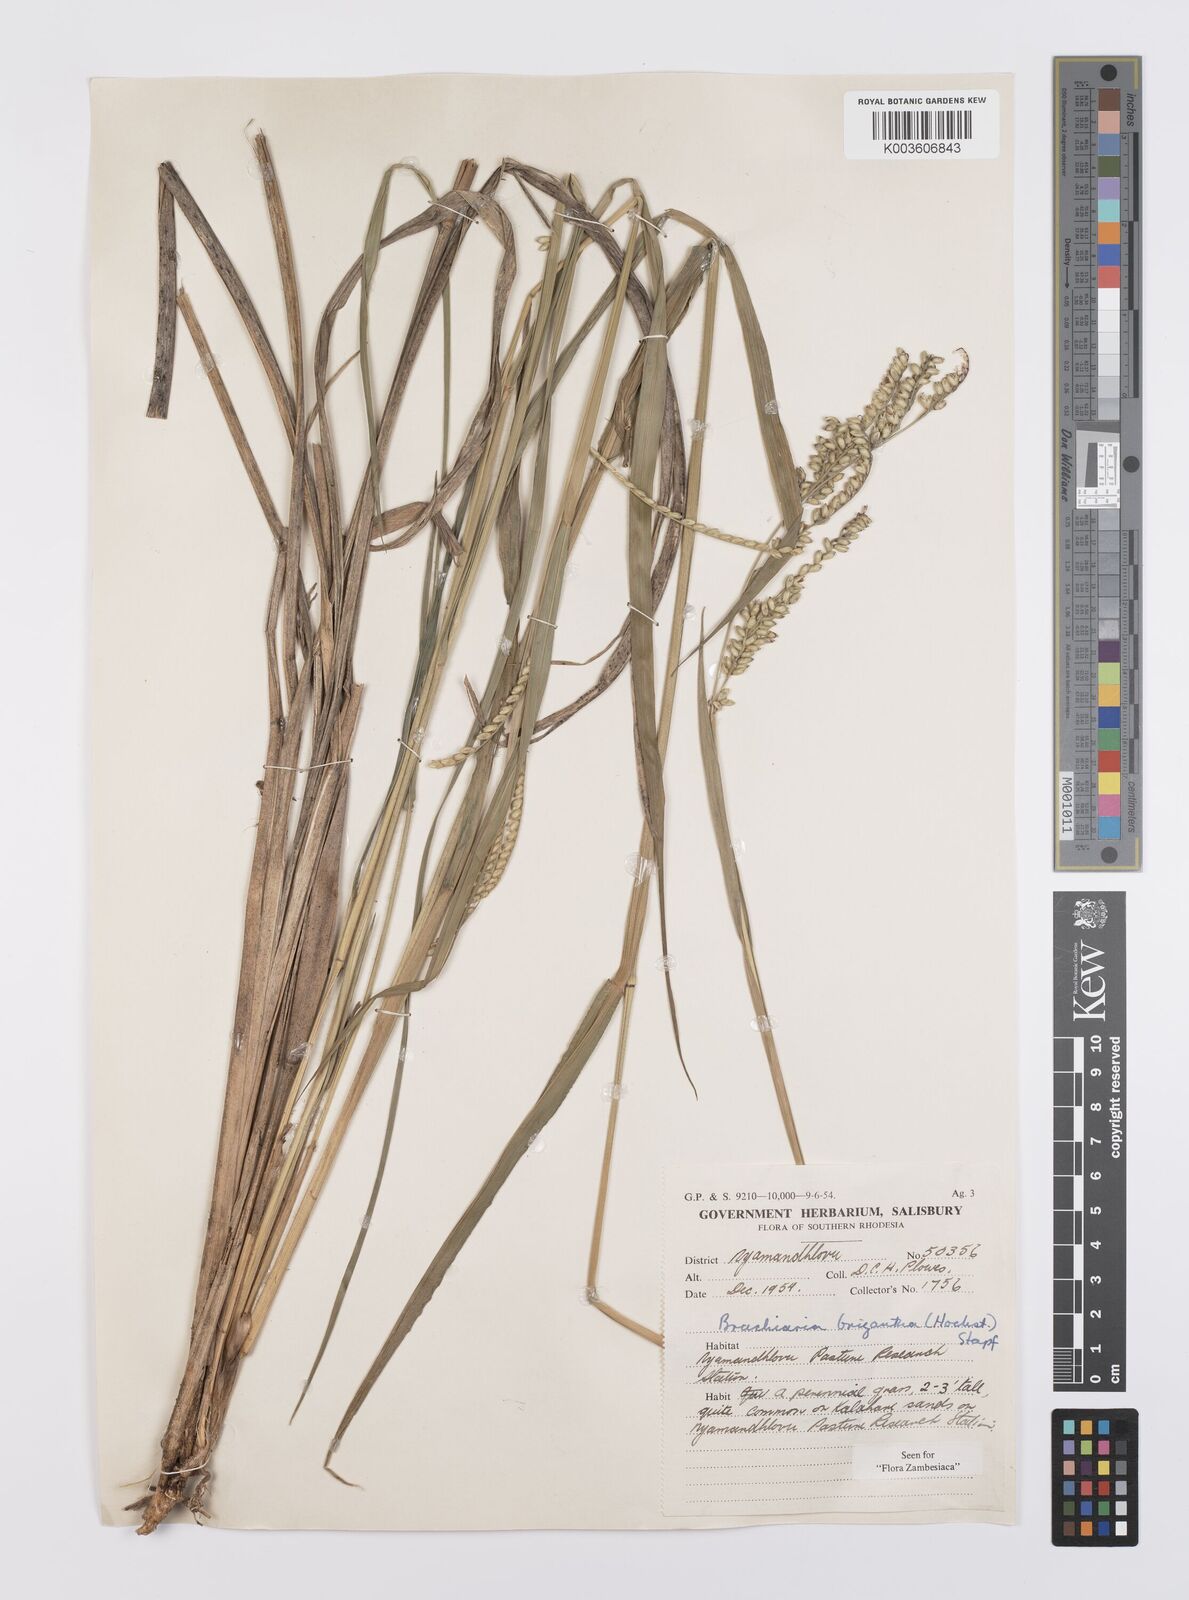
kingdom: Plantae
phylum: Tracheophyta
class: Liliopsida
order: Poales
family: Poaceae
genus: Urochloa
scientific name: Urochloa brizantha
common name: Palisade signalgrass
